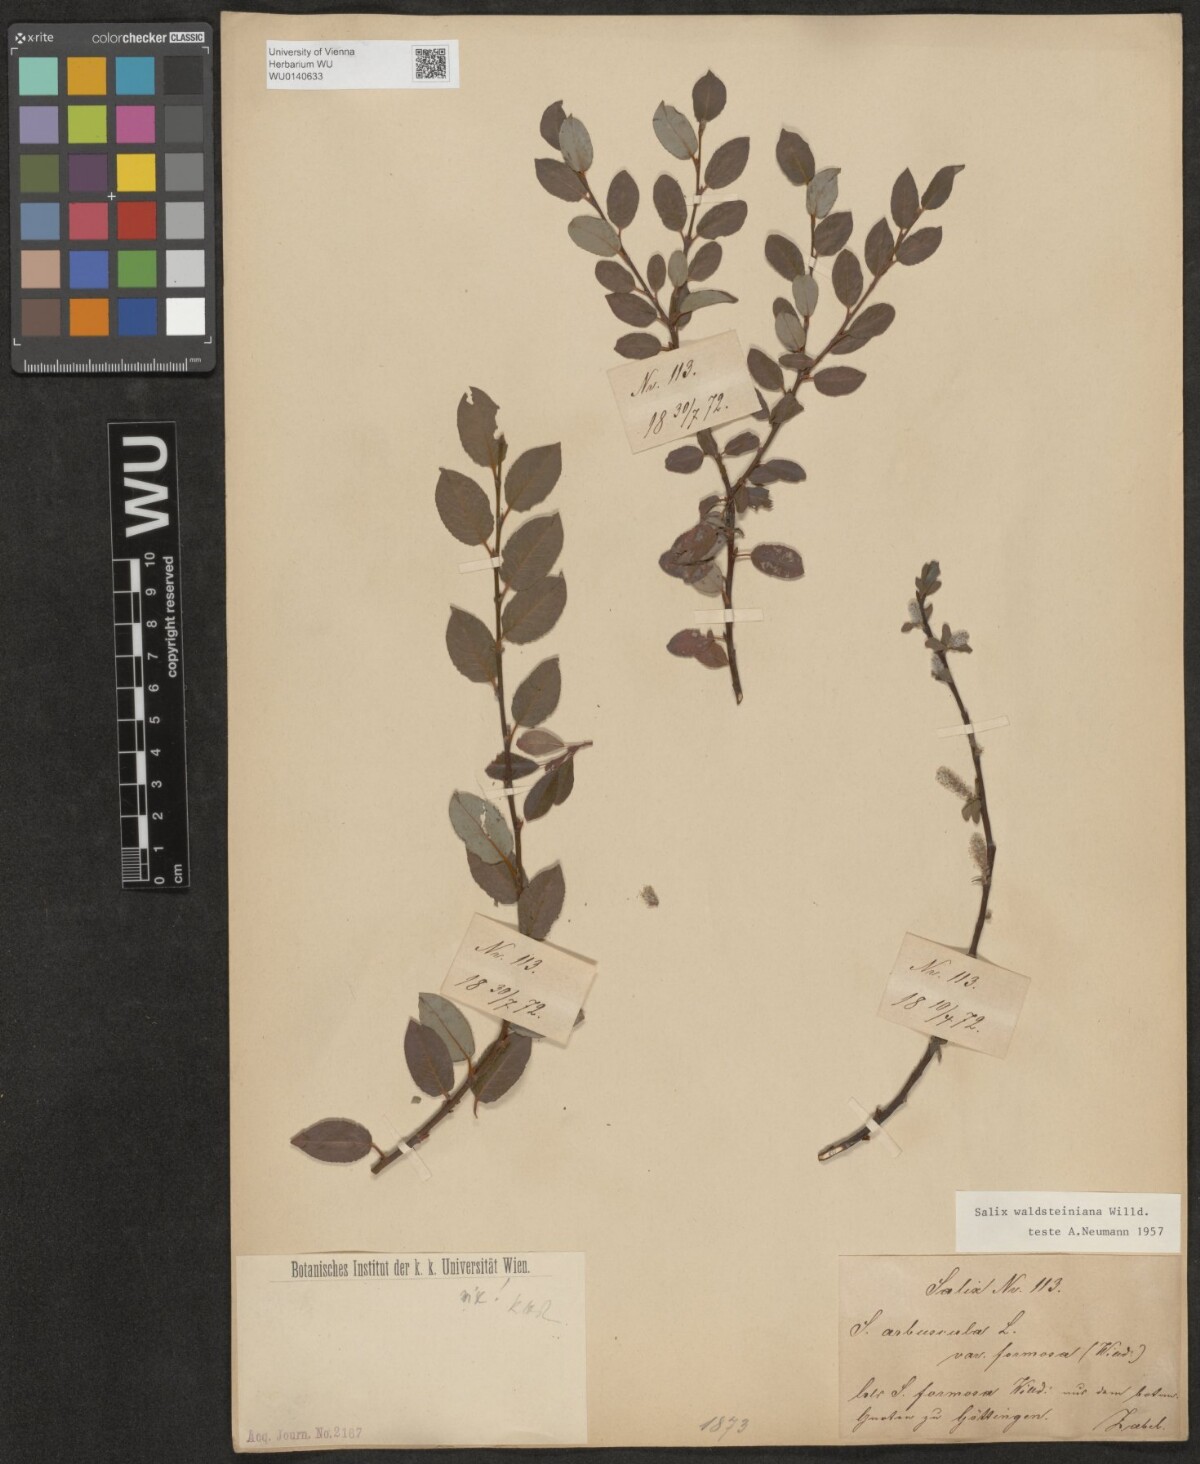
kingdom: Plantae
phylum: Tracheophyta
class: Magnoliopsida
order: Malpighiales
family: Salicaceae
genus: Salix
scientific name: Salix waldsteiniana
